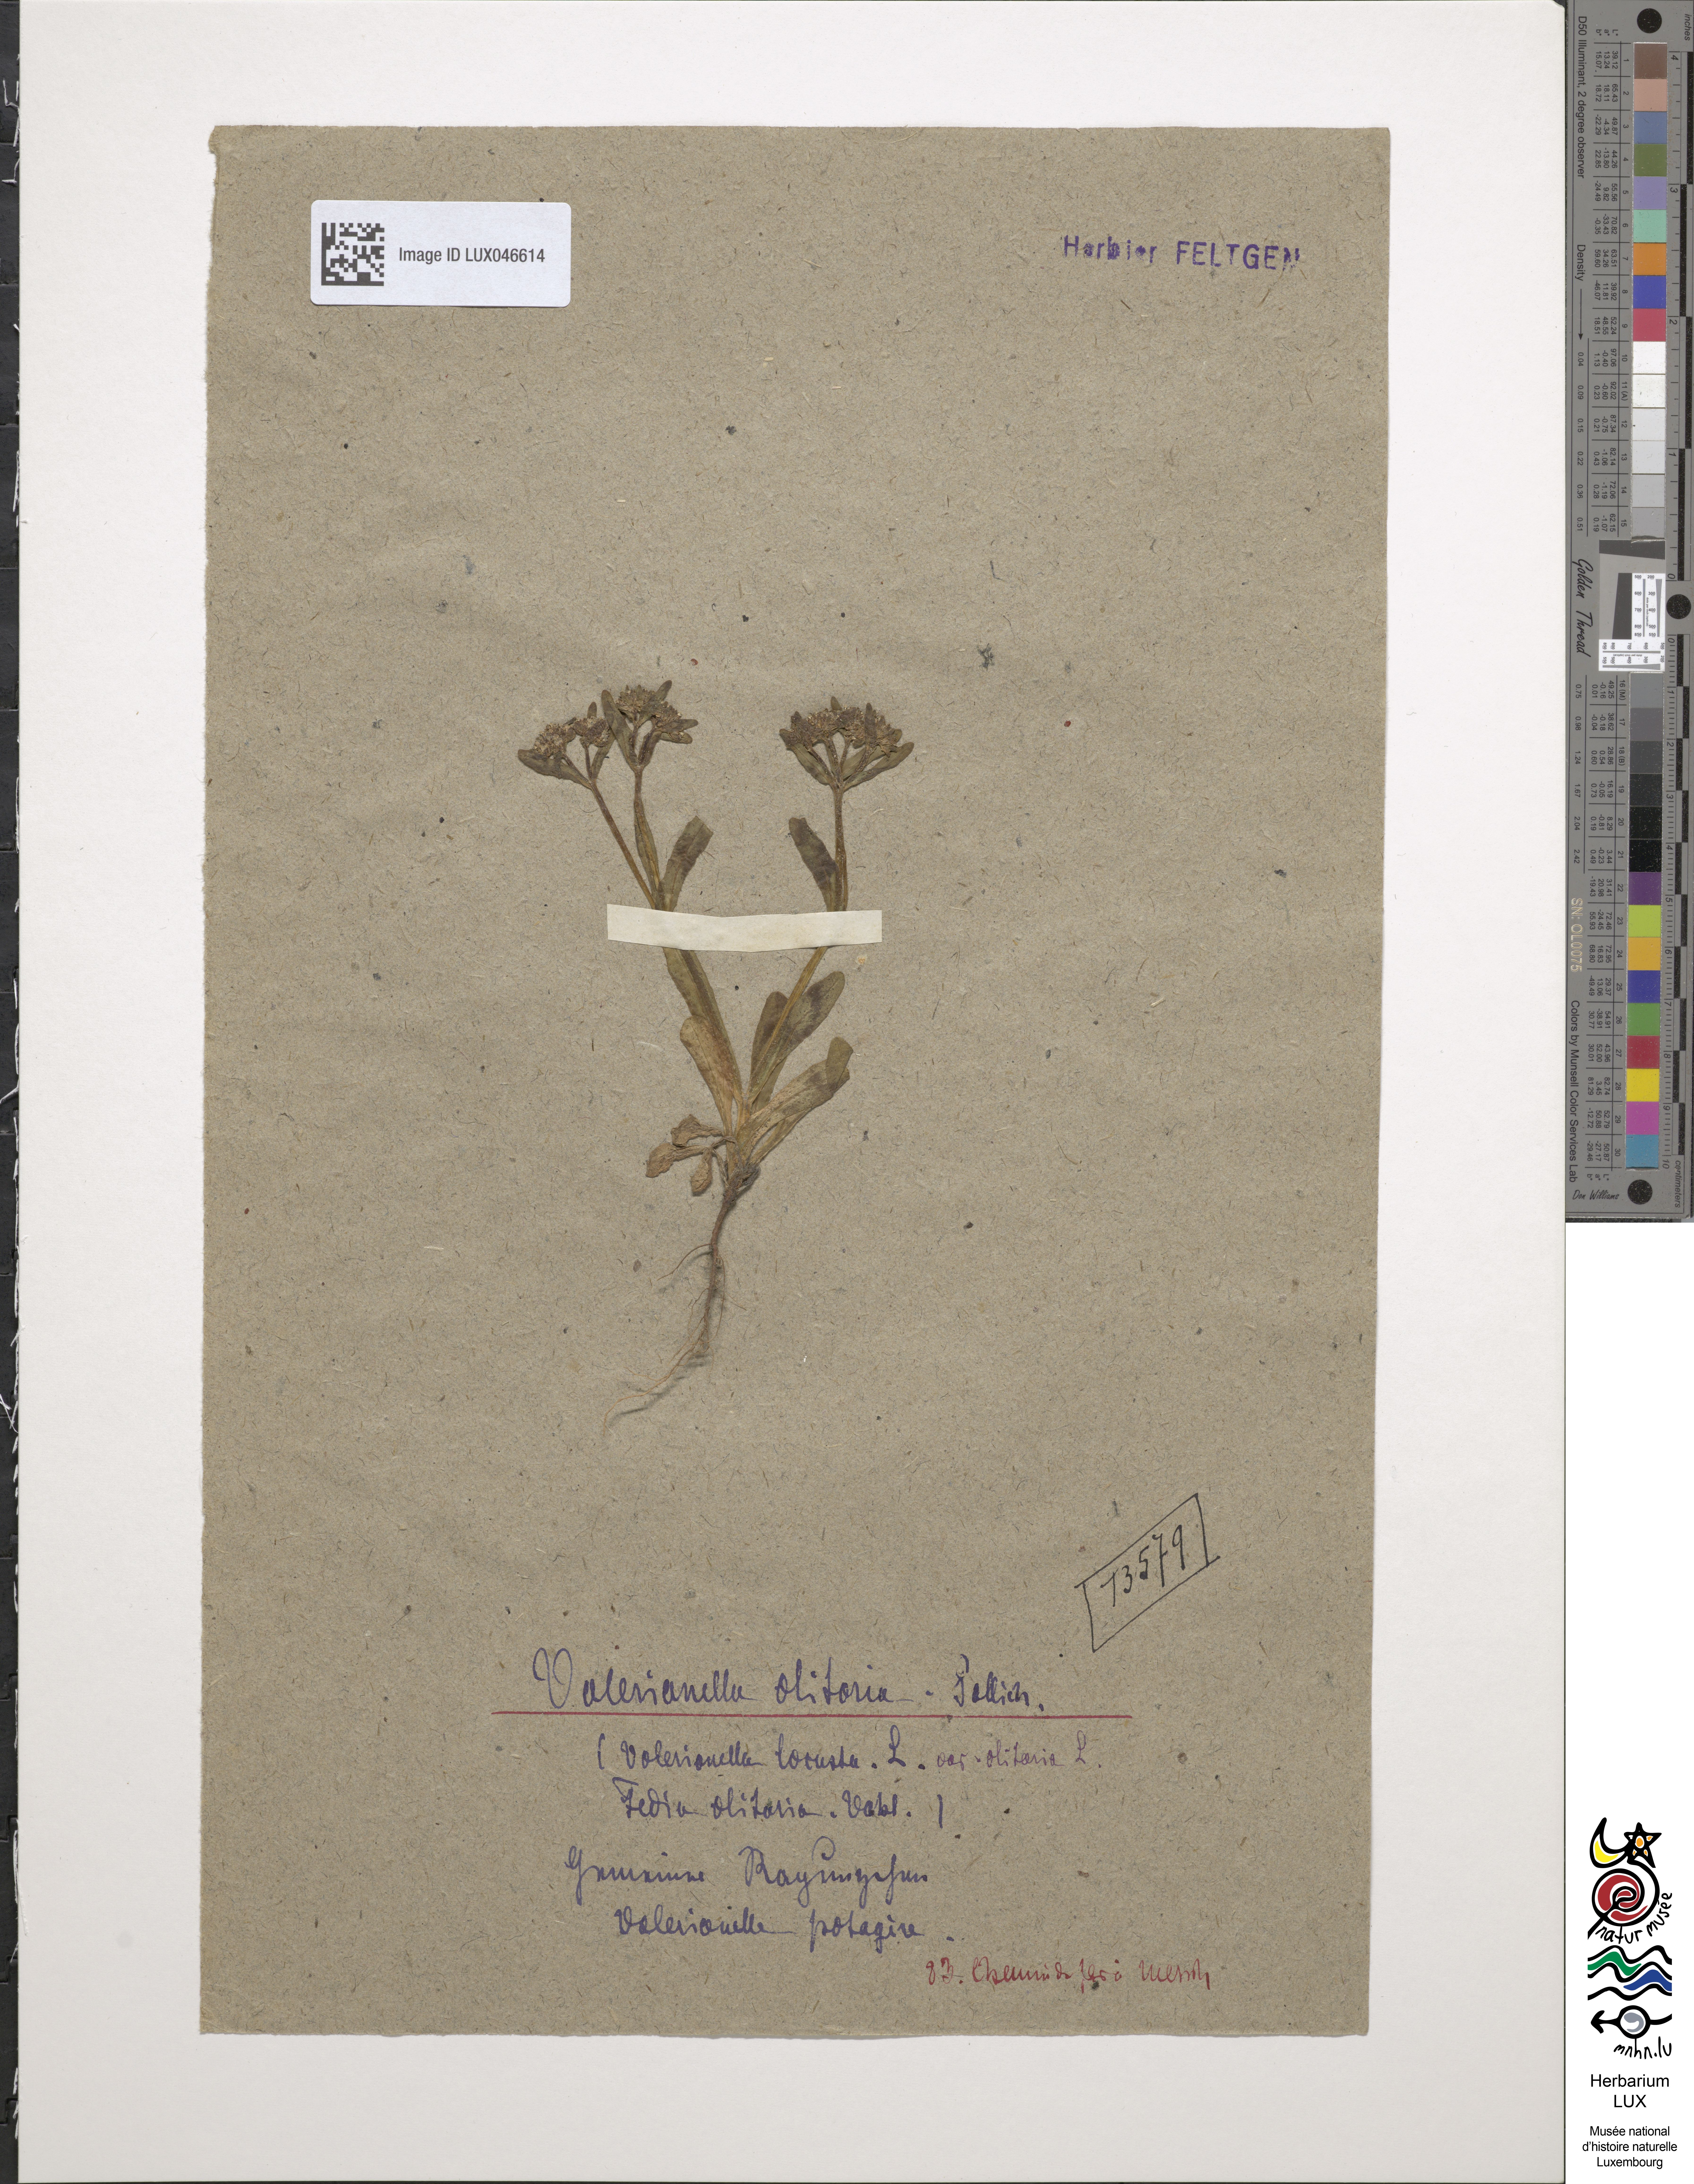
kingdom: Plantae
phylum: Tracheophyta
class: Magnoliopsida
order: Dipsacales
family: Caprifoliaceae
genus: Valerianella
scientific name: Valerianella locusta
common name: Common cornsalad
